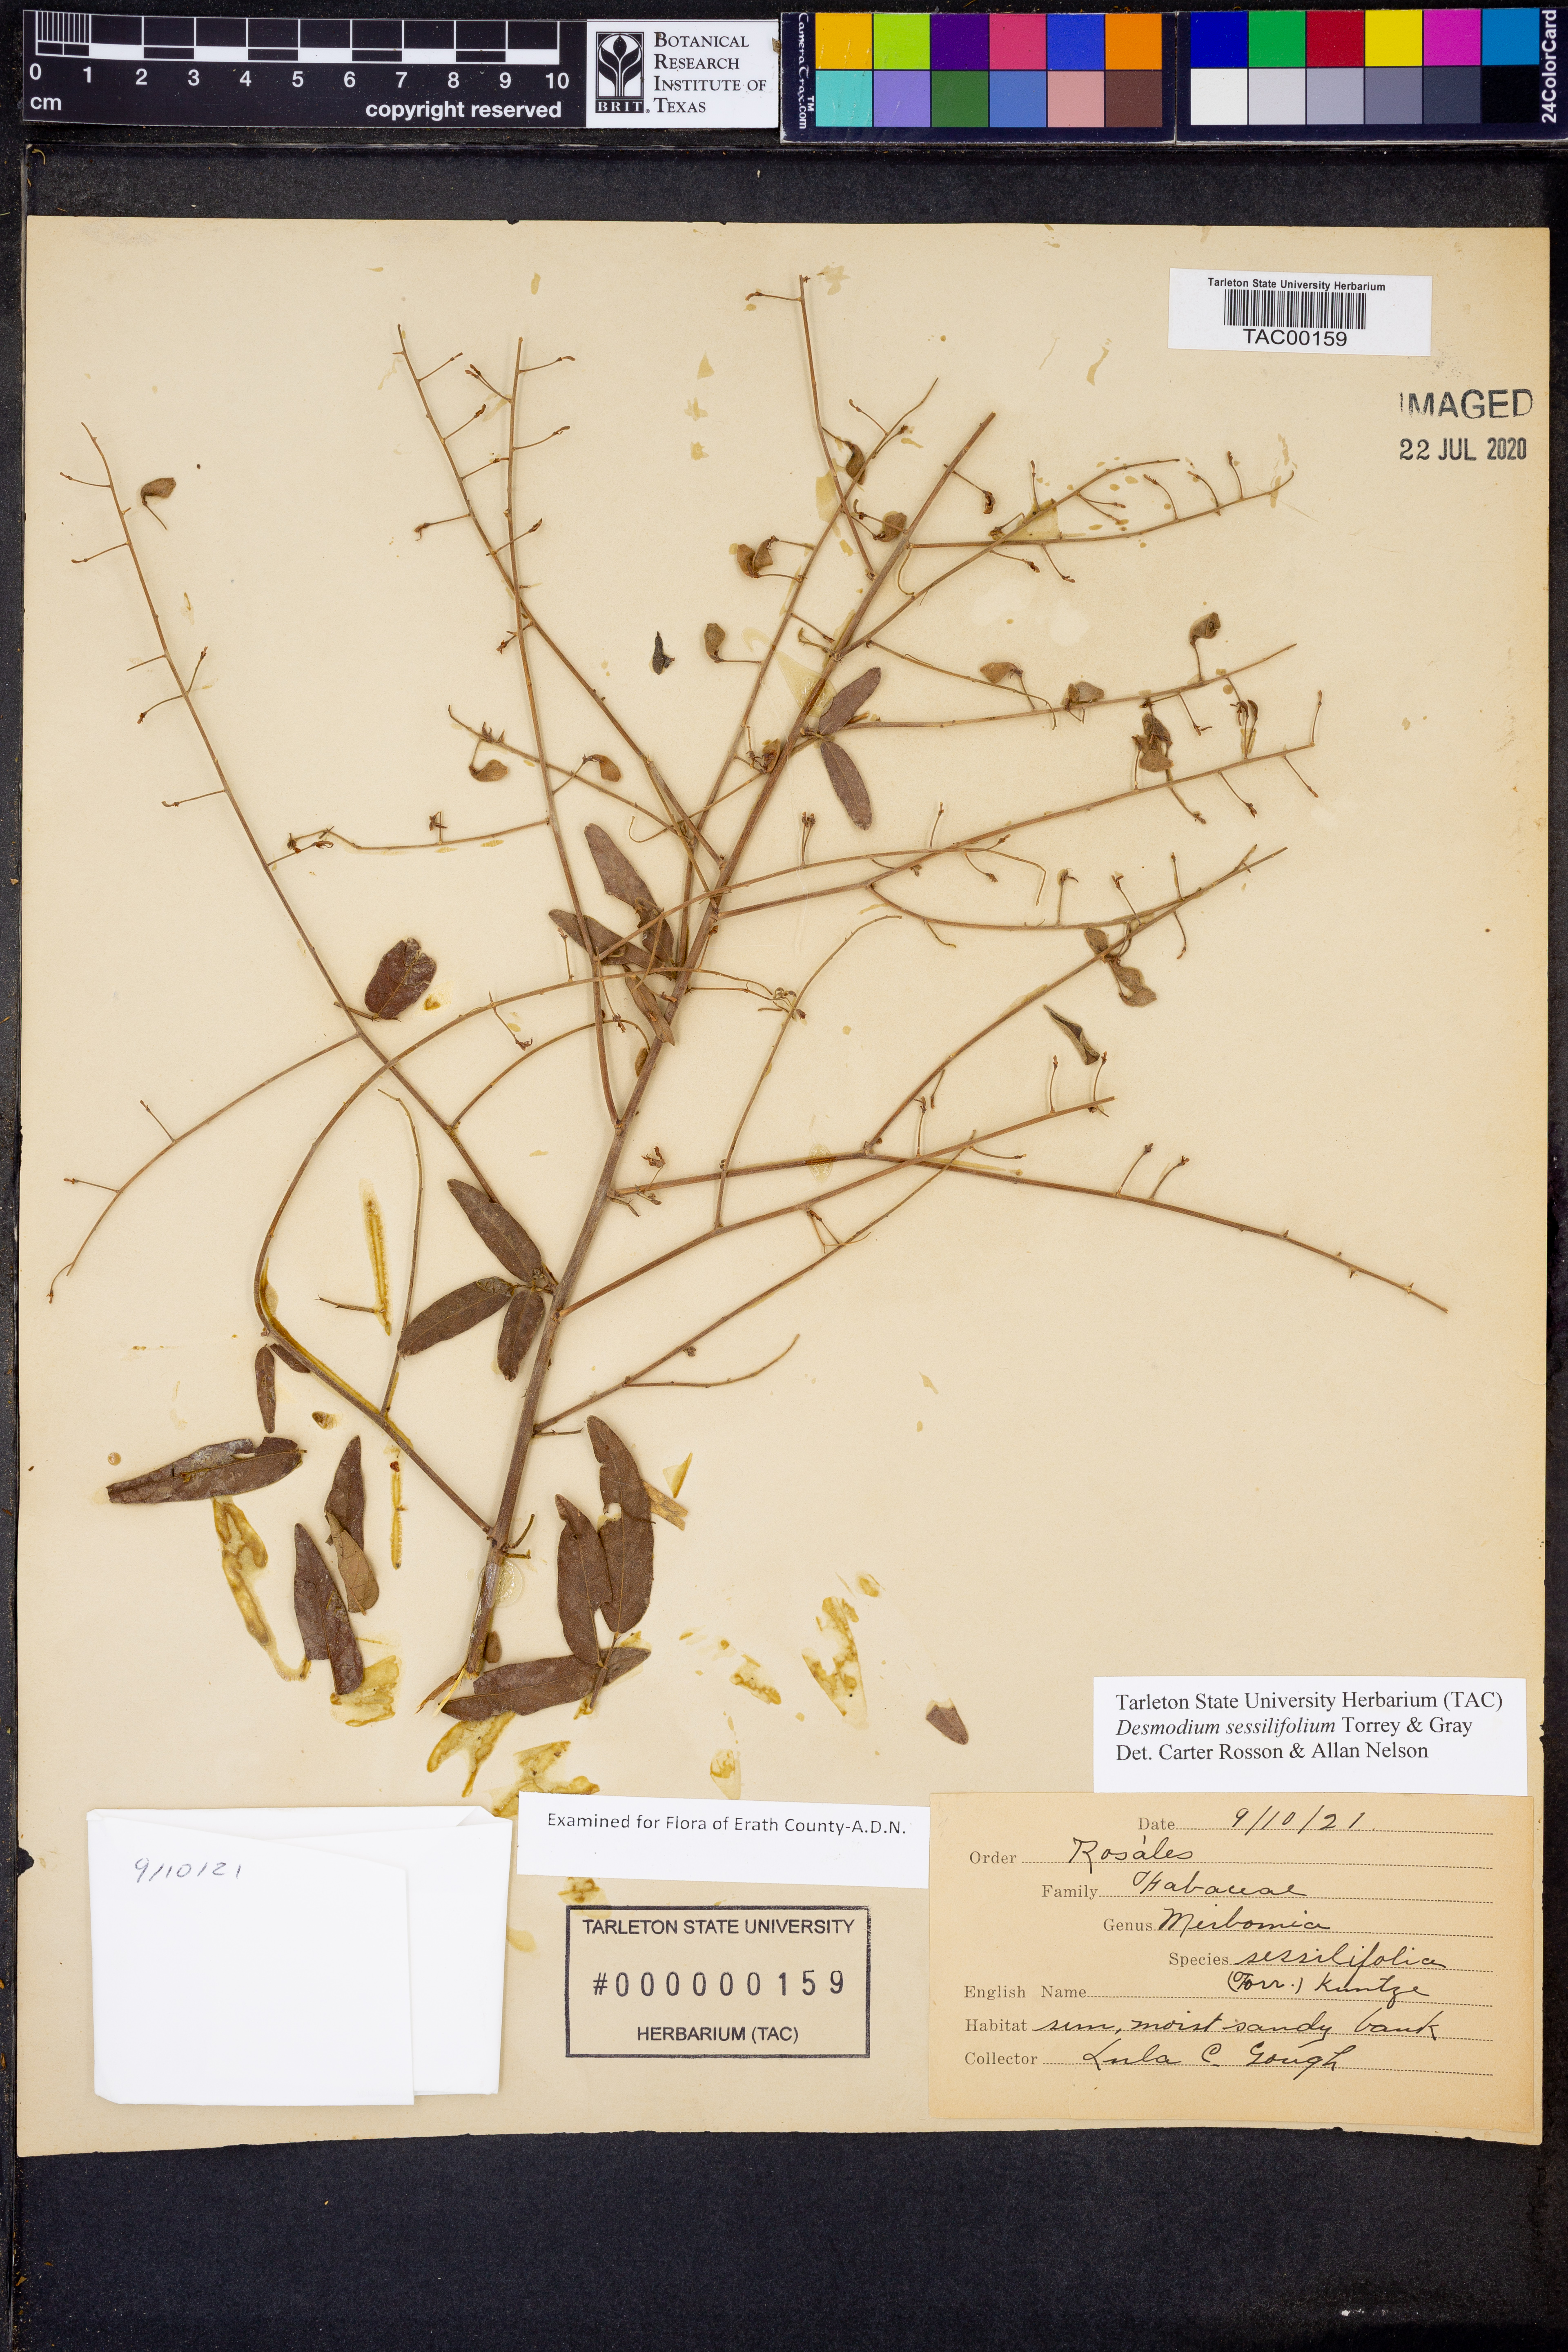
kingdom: Plantae
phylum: Tracheophyta
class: Magnoliopsida
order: Fabales
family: Fabaceae
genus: Desmodium
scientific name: Desmodium sessilifolium
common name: Sessile tick-clover
